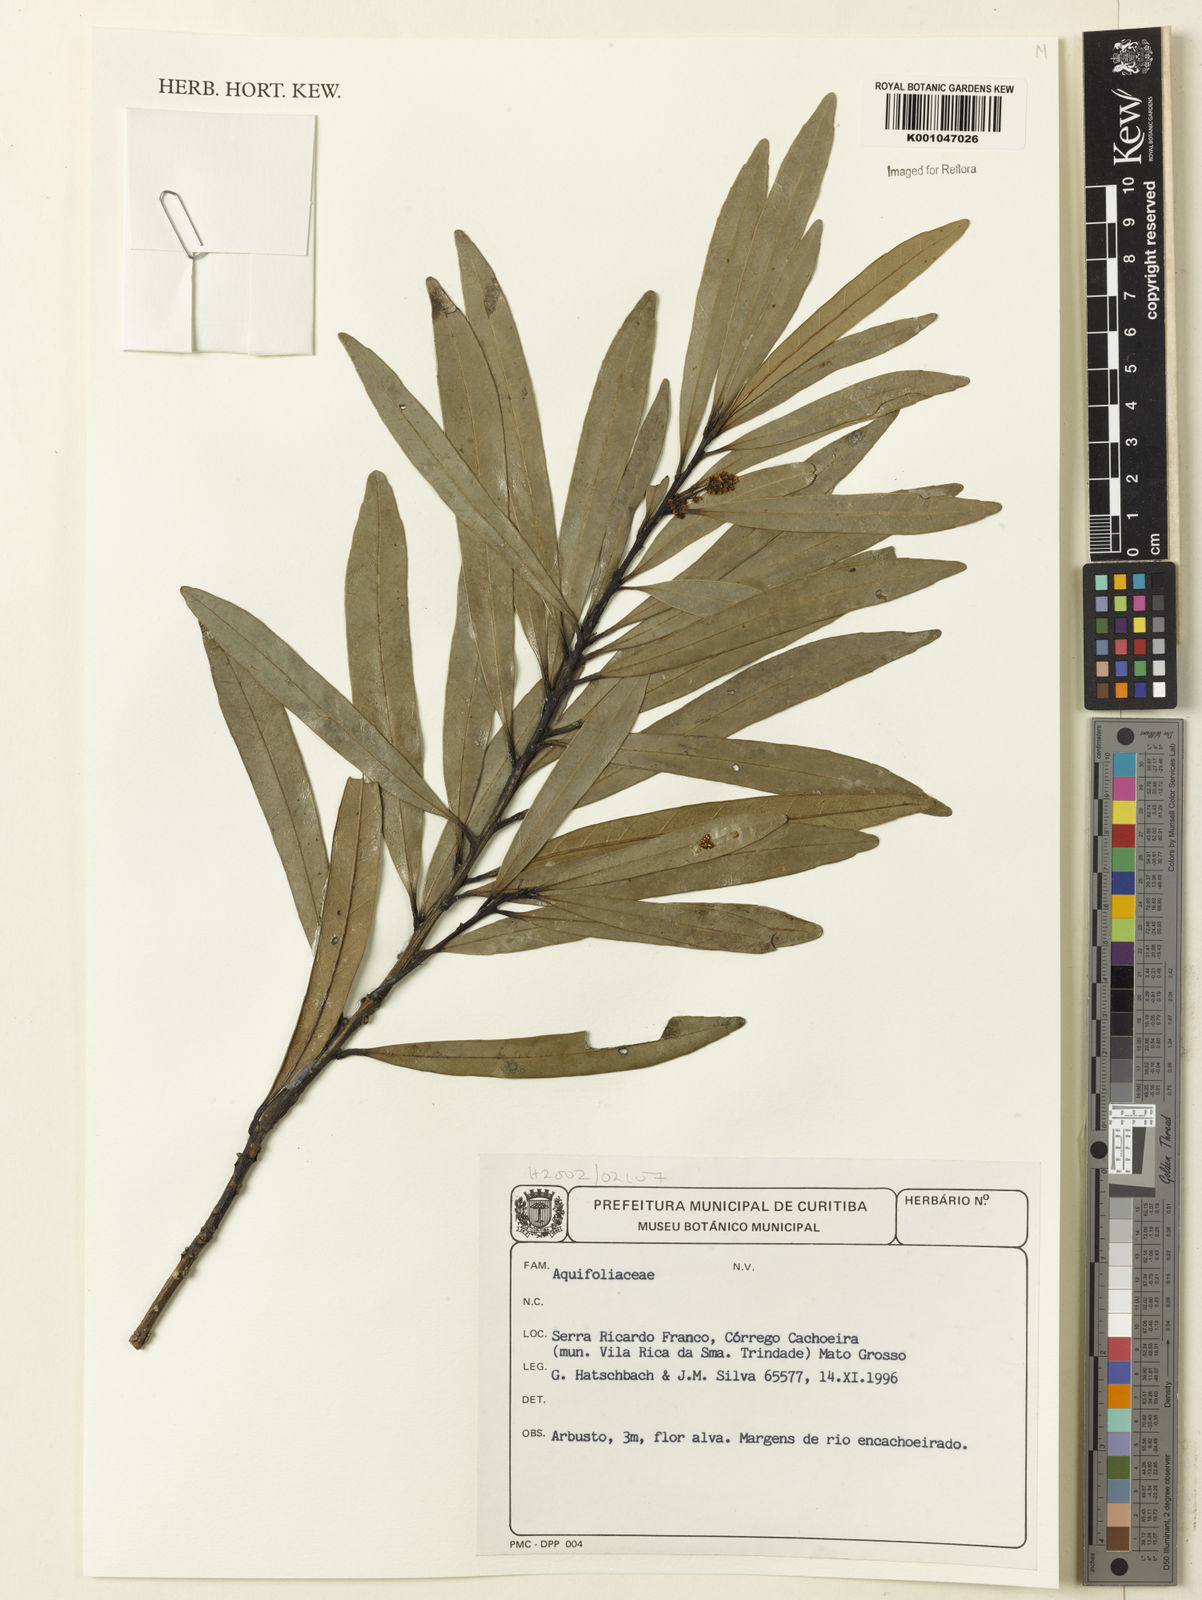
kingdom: Plantae
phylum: Tracheophyta
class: Magnoliopsida
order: Aquifoliales
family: Aquifoliaceae
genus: Ilex
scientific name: Ilex
